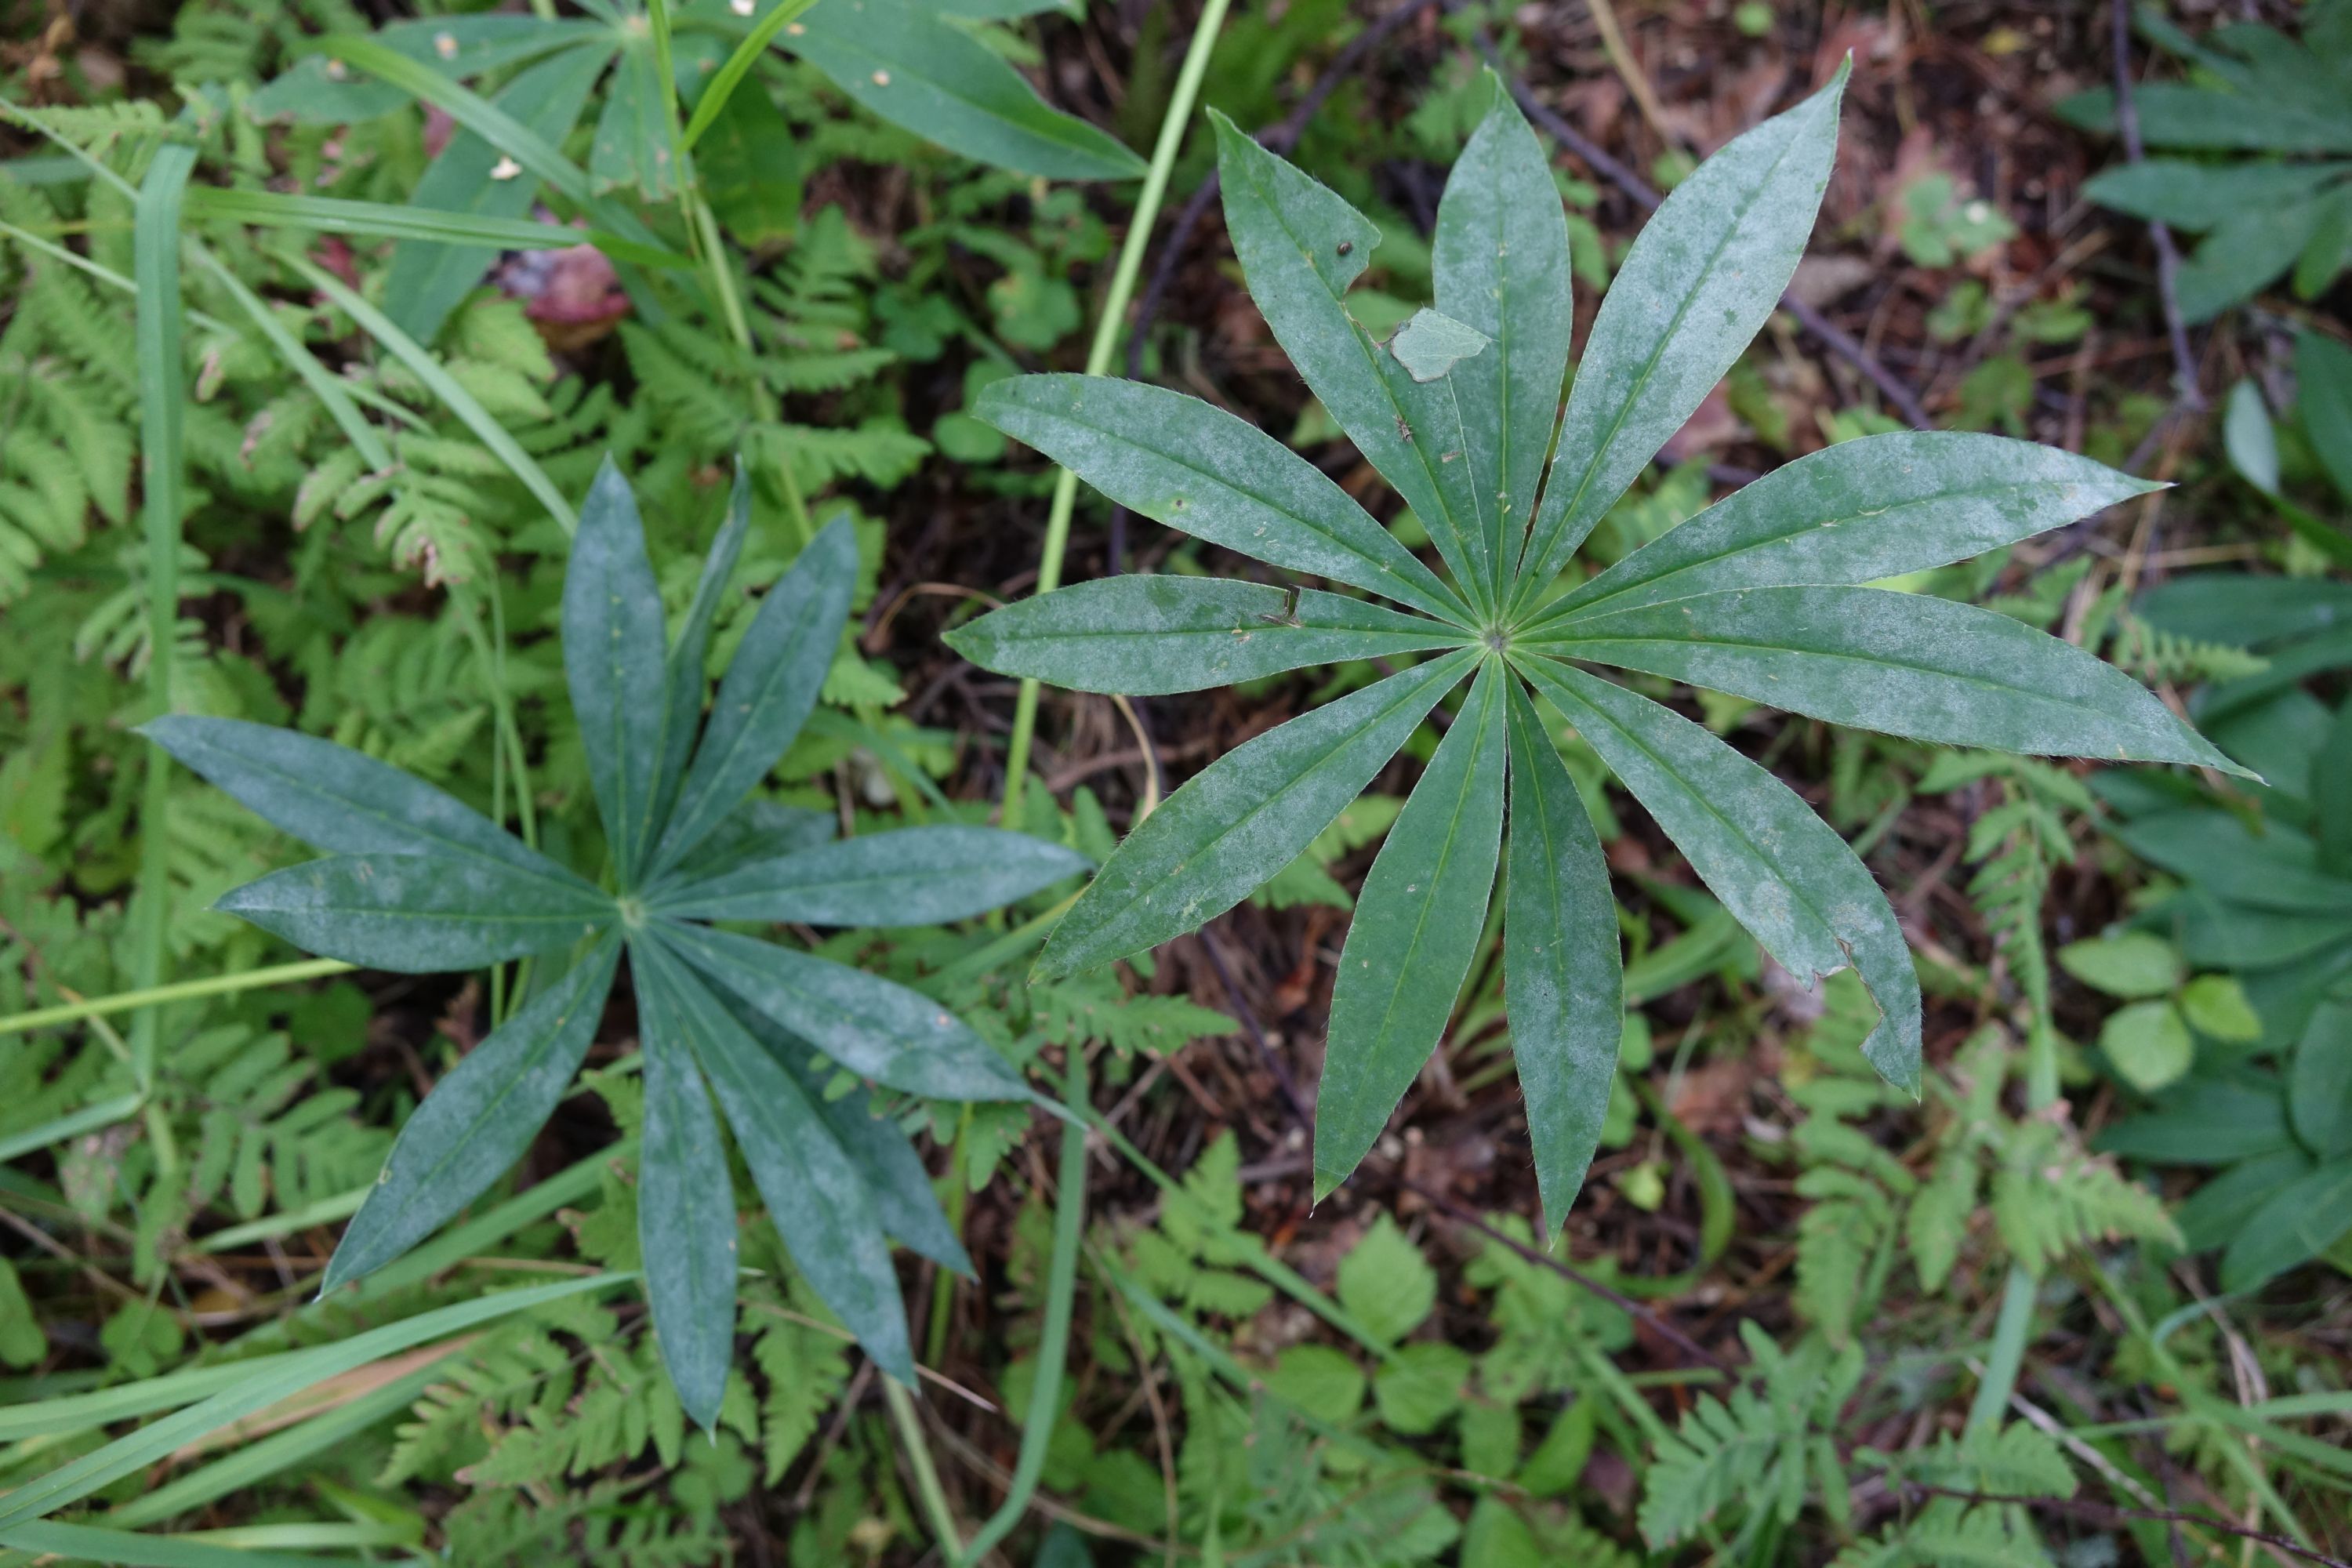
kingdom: Fungi
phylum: Ascomycota
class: Leotiomycetes
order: Helotiales
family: Erysiphaceae
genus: Erysiphe
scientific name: Erysiphe intermedia
